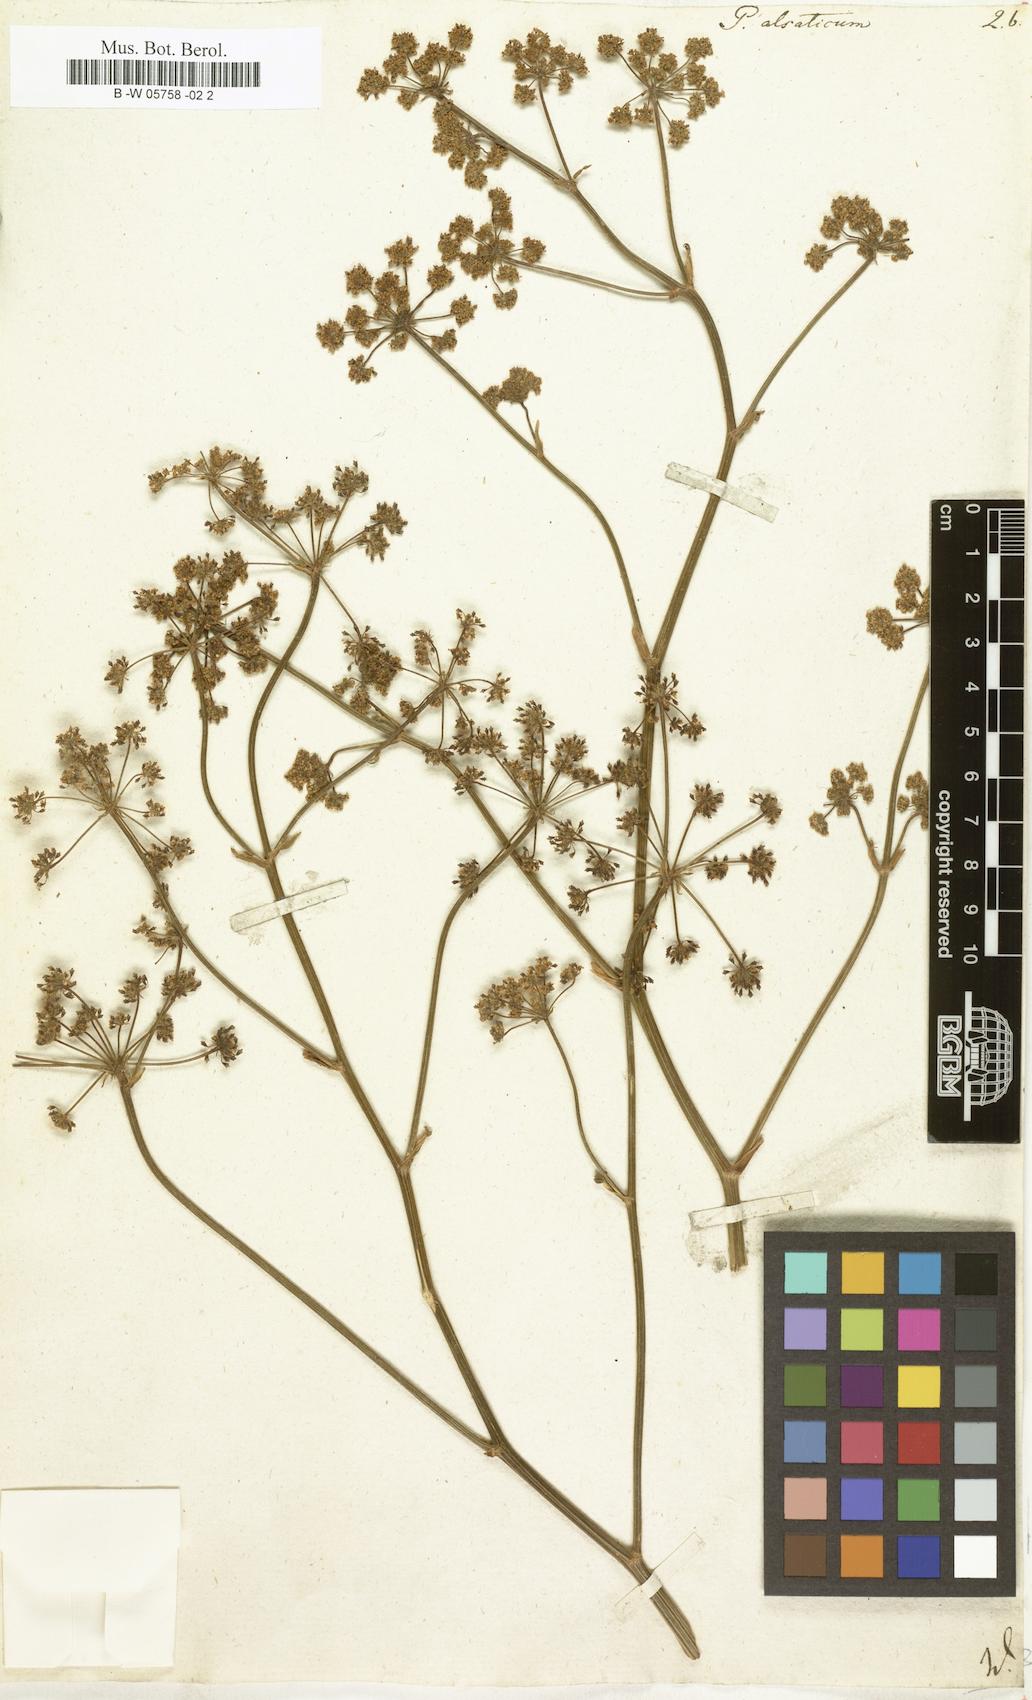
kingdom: Plantae
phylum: Tracheophyta
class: Magnoliopsida
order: Apiales
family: Apiaceae
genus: Xanthoselinum
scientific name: Xanthoselinum alsaticum
